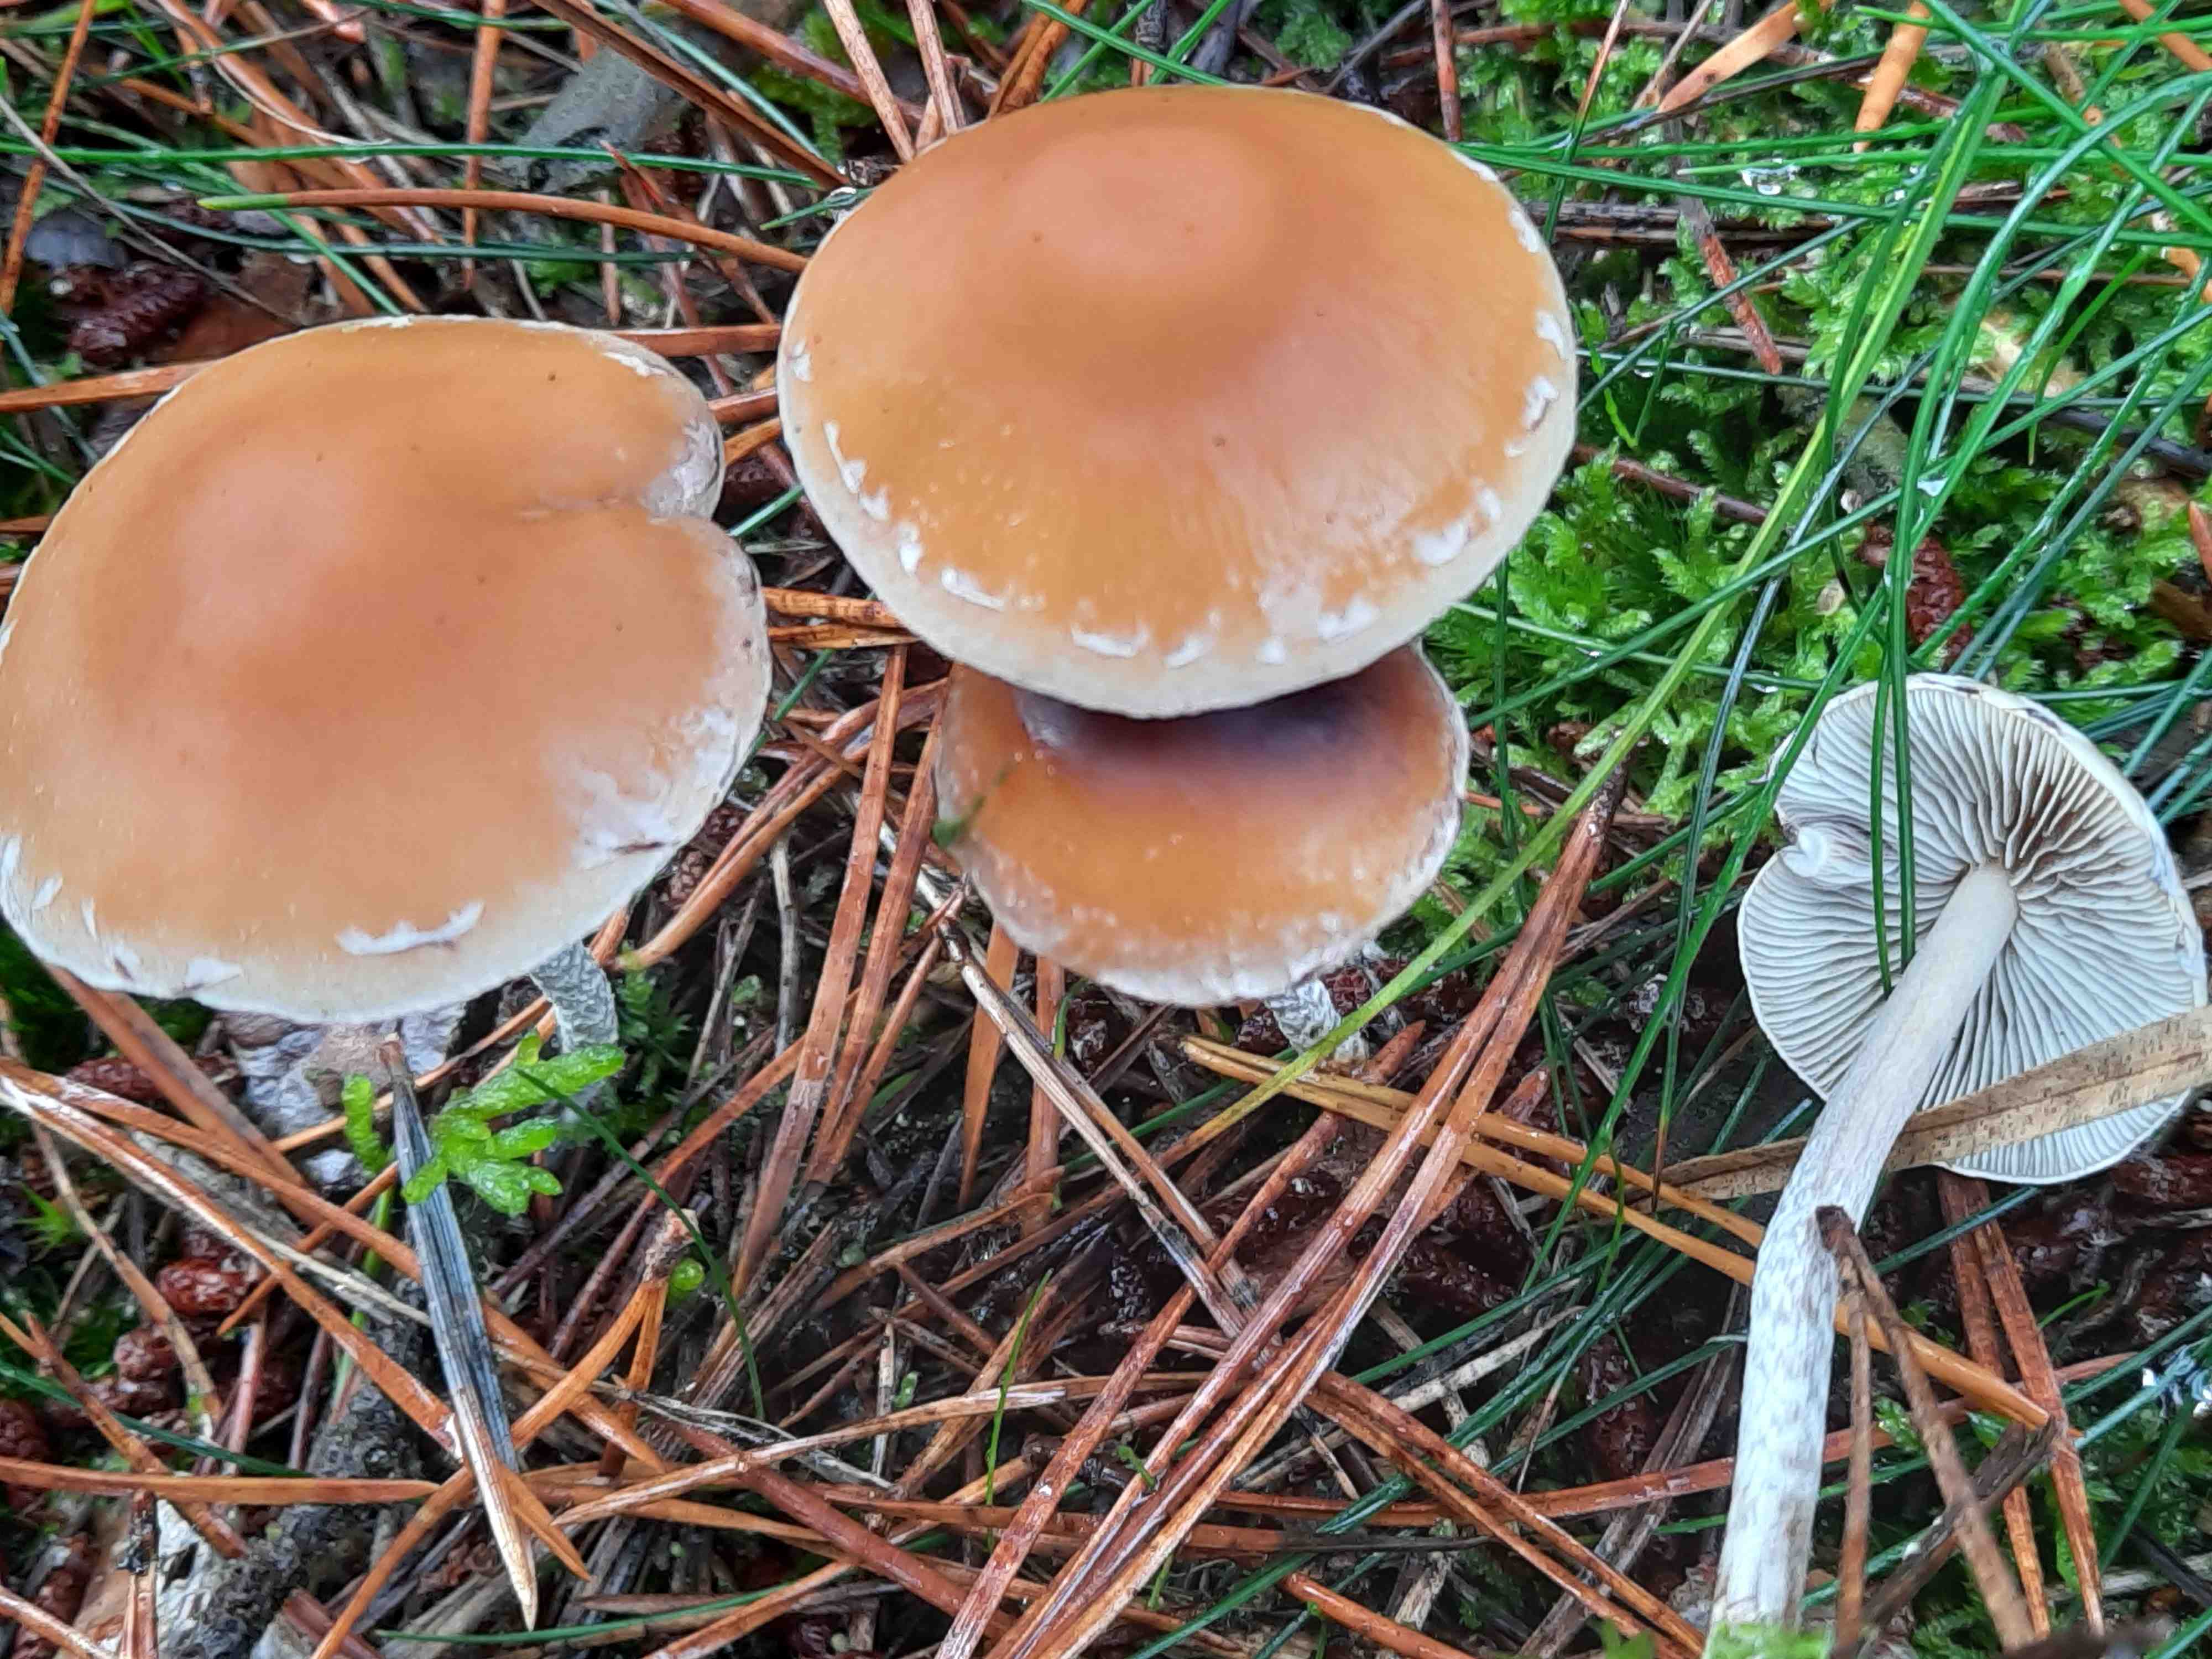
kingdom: Fungi
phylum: Basidiomycota
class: Agaricomycetes
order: Agaricales
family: Strophariaceae
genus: Hypholoma
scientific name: Hypholoma marginatum
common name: enlig svovlhat
